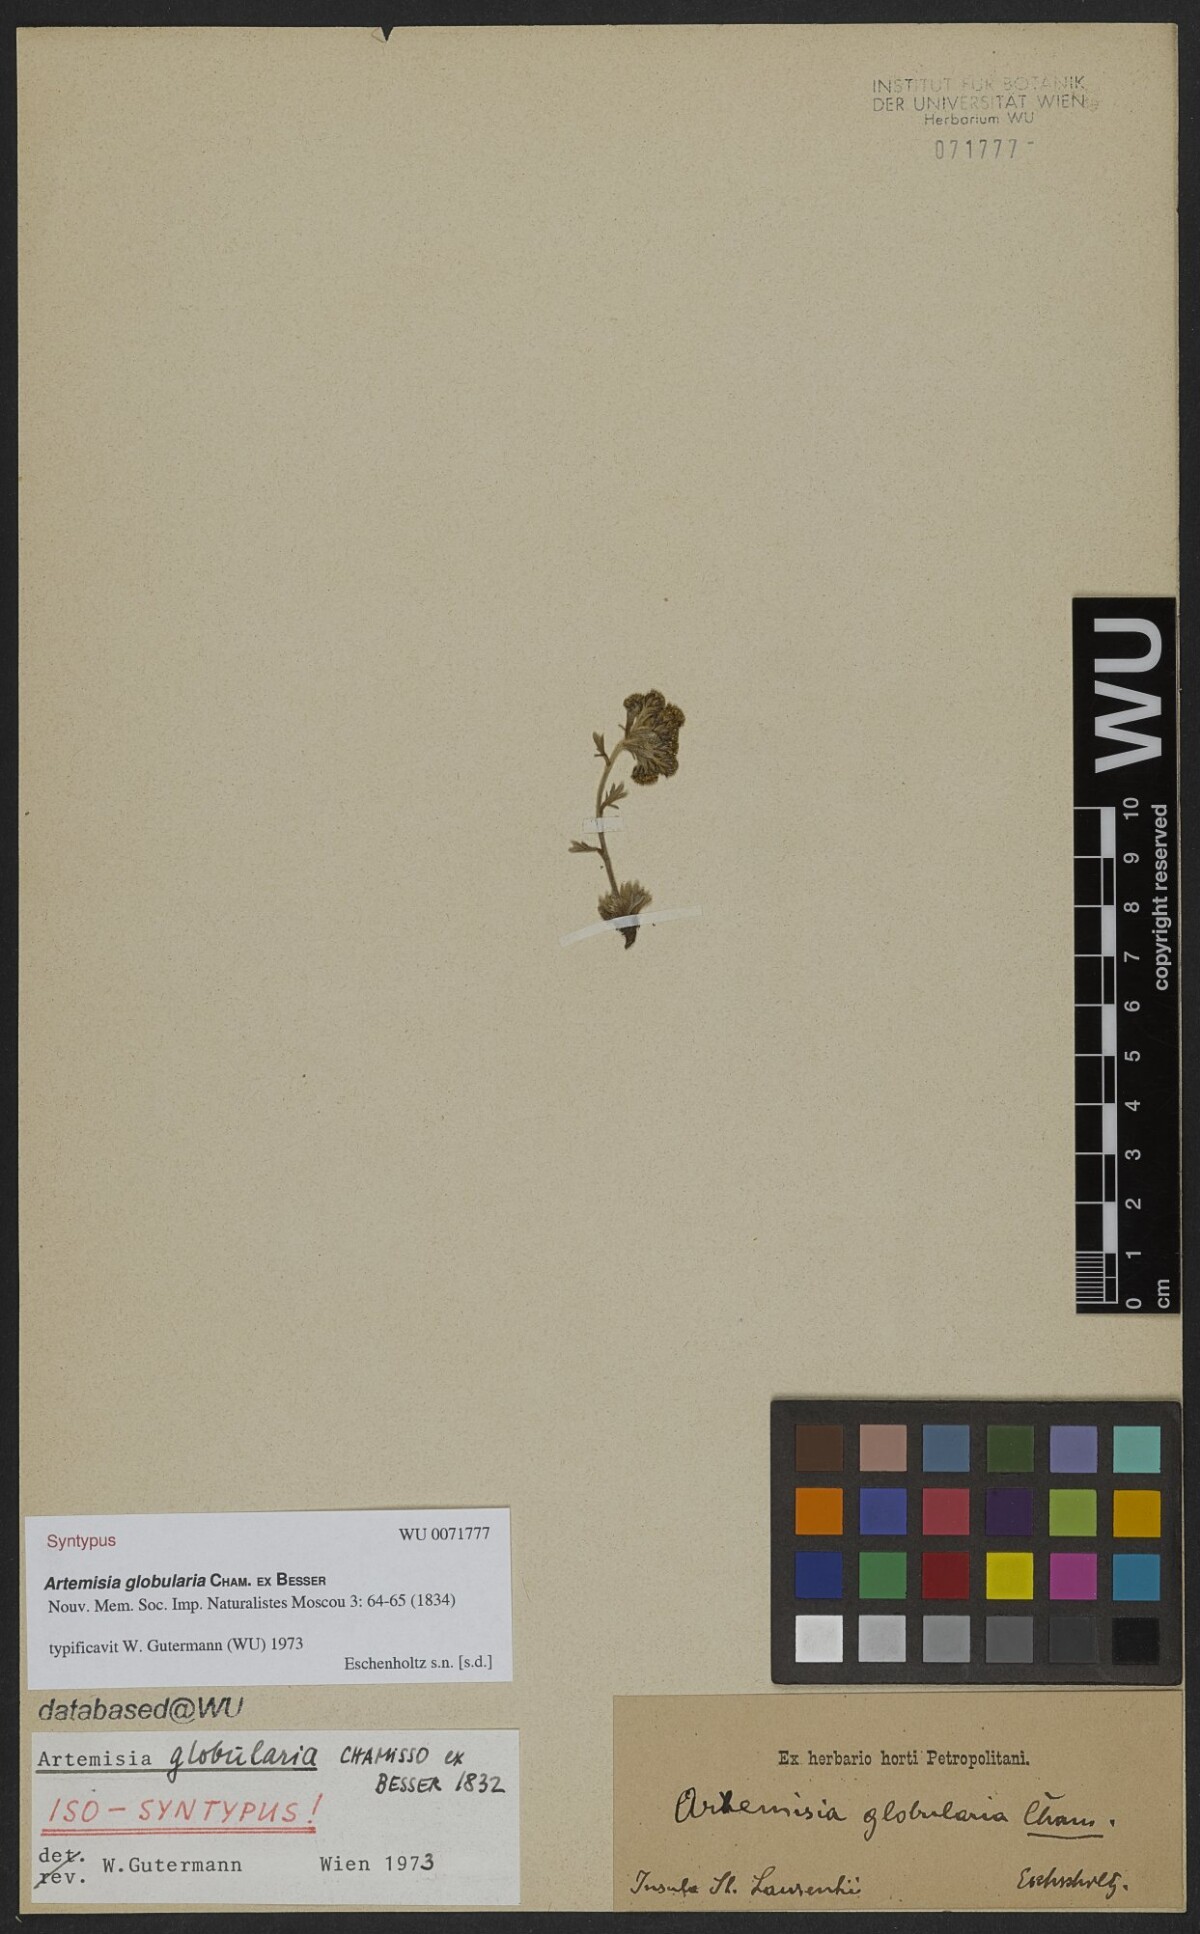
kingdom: Plantae
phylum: Tracheophyta
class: Magnoliopsida
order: Asterales
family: Asteraceae
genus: Artemisia
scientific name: Artemisia globularia
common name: Purple wormwood
